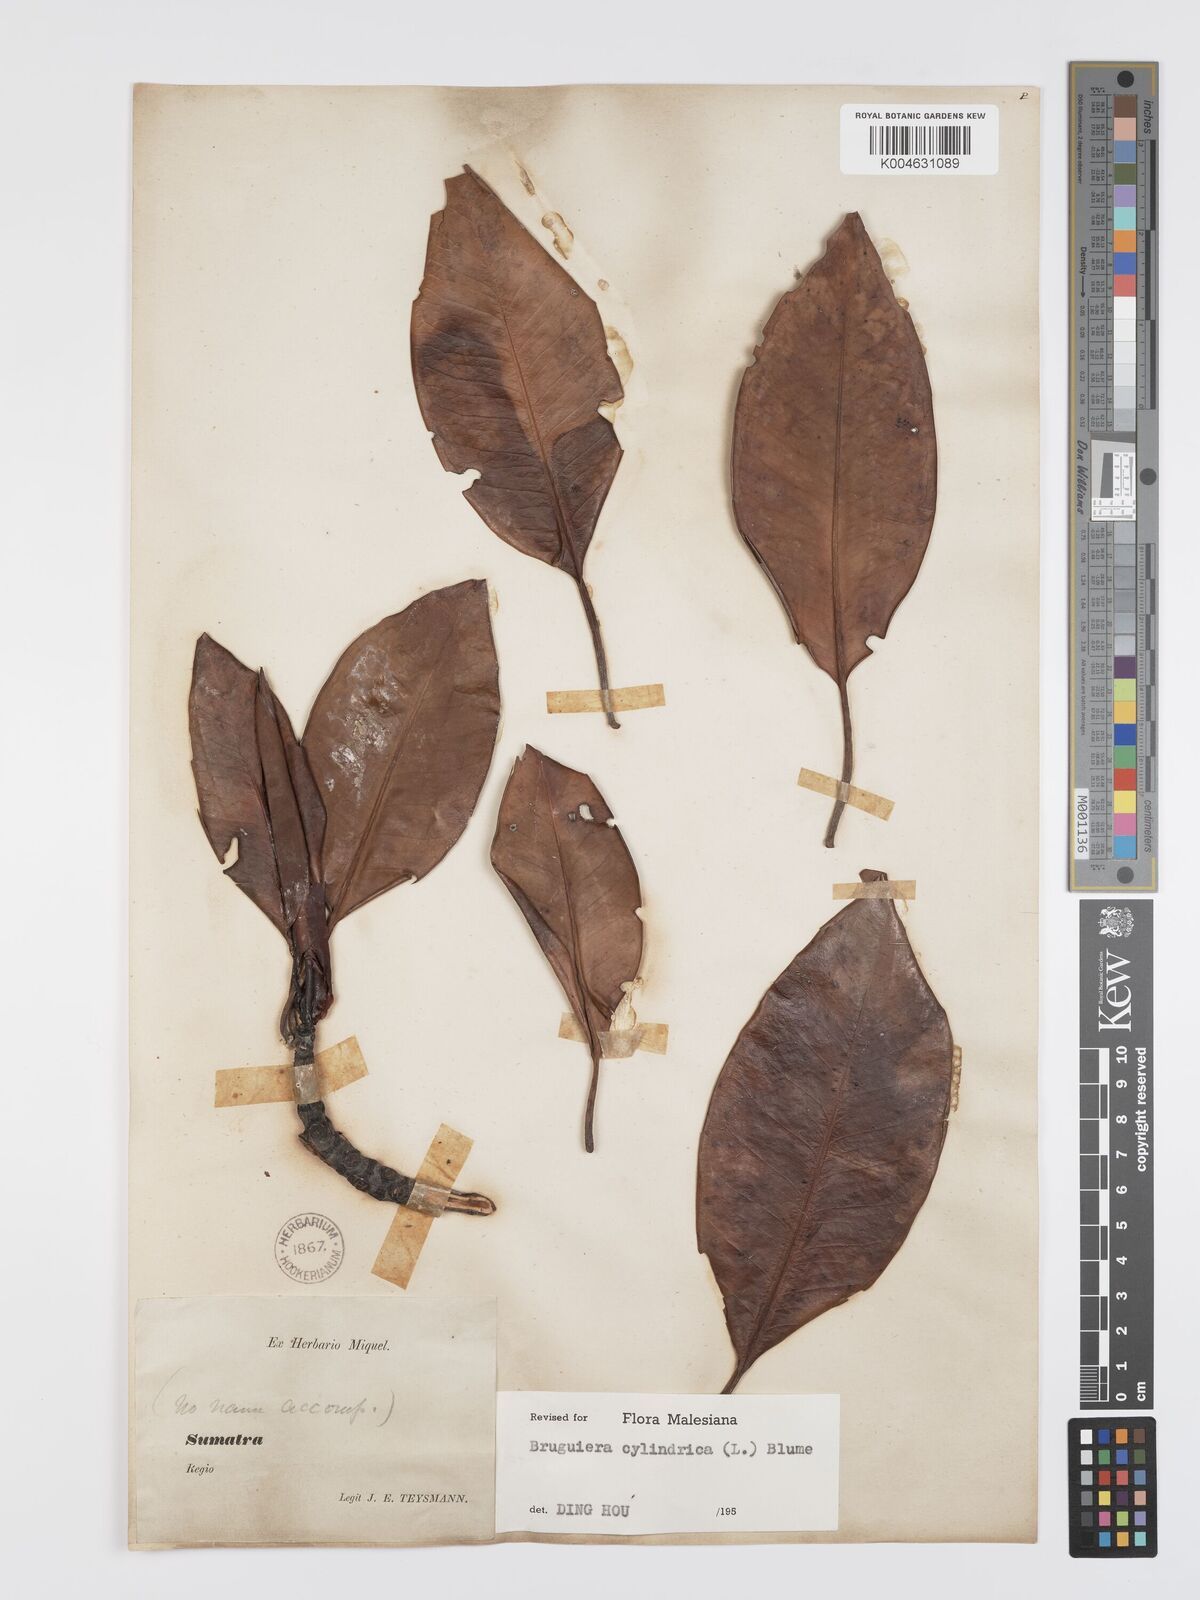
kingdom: Plantae
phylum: Tracheophyta
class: Magnoliopsida
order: Malpighiales
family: Rhizophoraceae
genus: Bruguiera
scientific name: Bruguiera cylindrica
